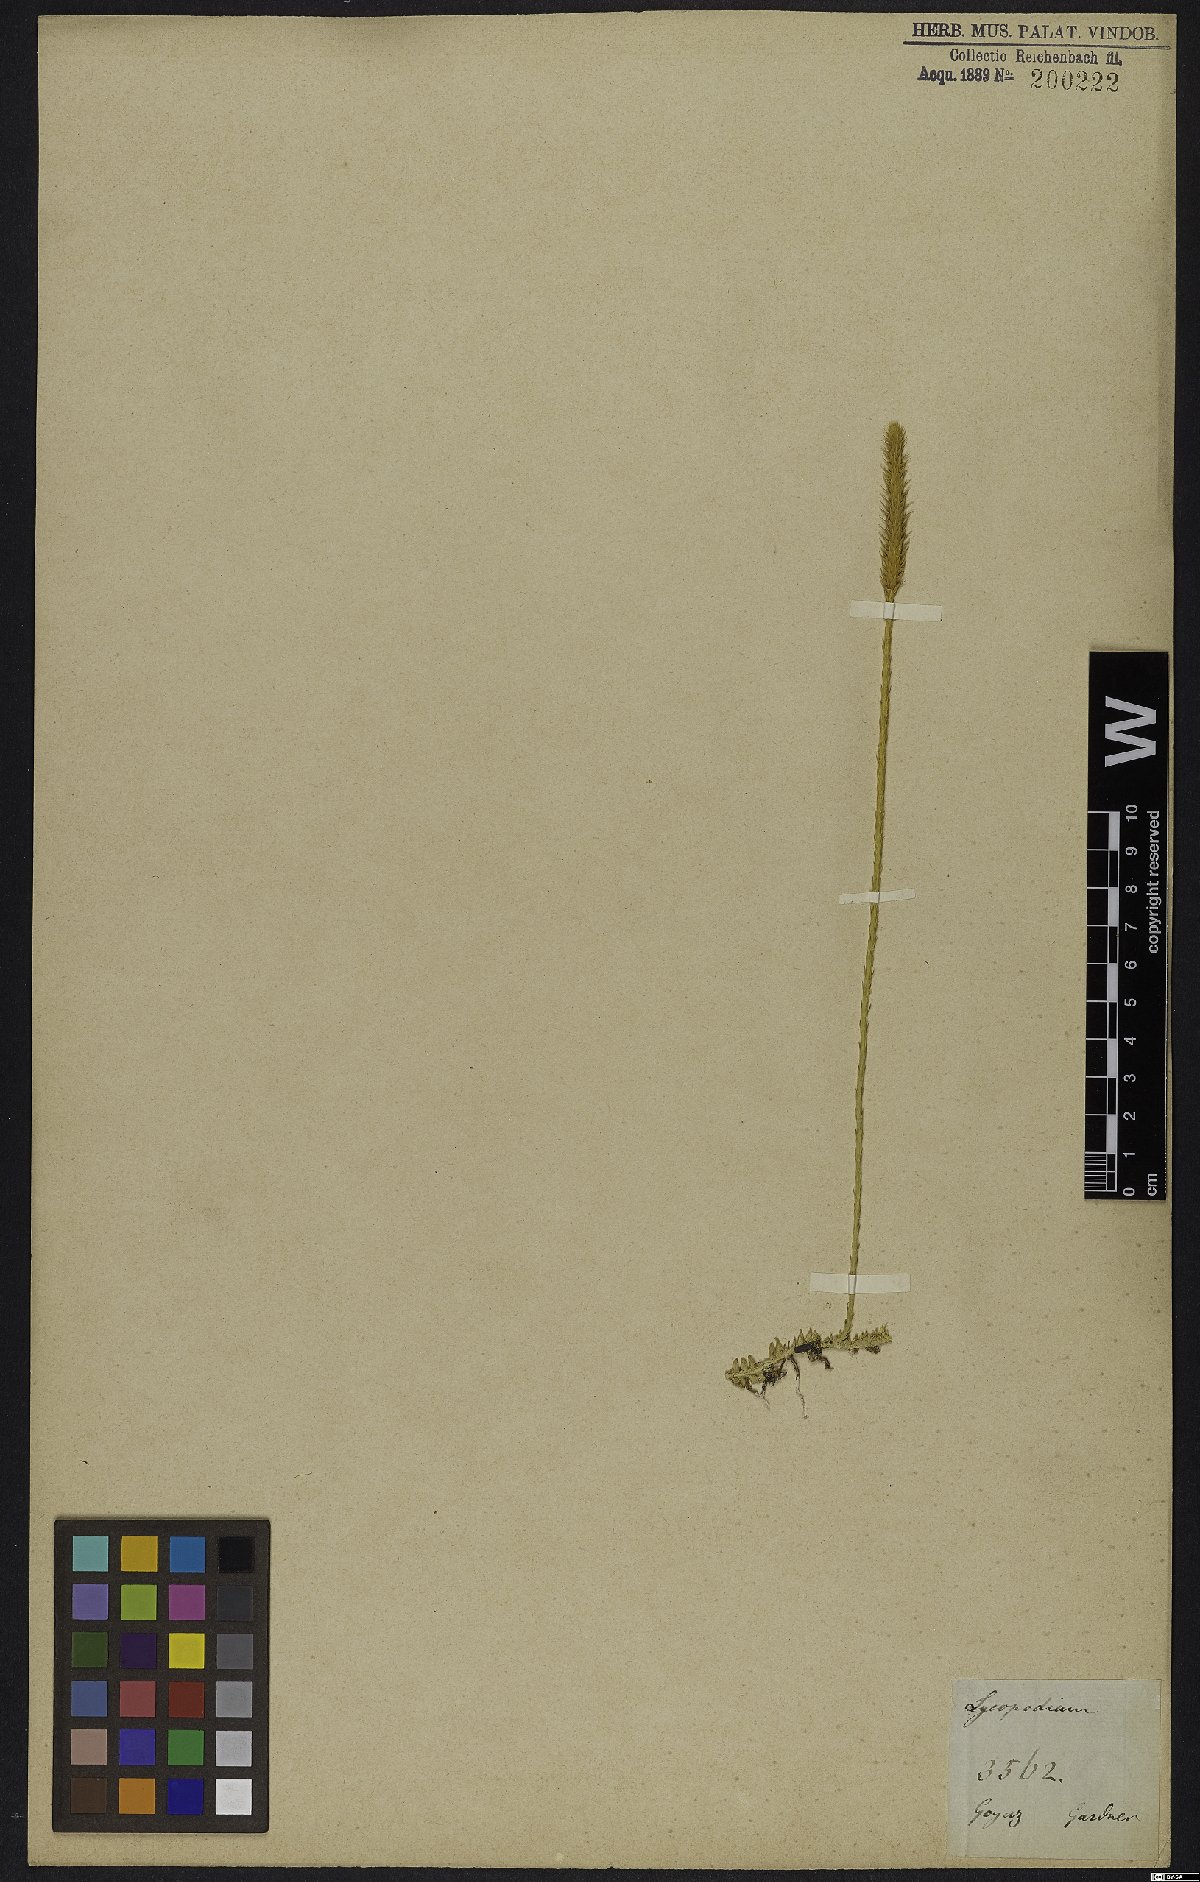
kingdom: Plantae
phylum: Tracheophyta
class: Lycopodiopsida
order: Lycopodiales
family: Lycopodiaceae
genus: Lycopodium
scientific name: Lycopodium
